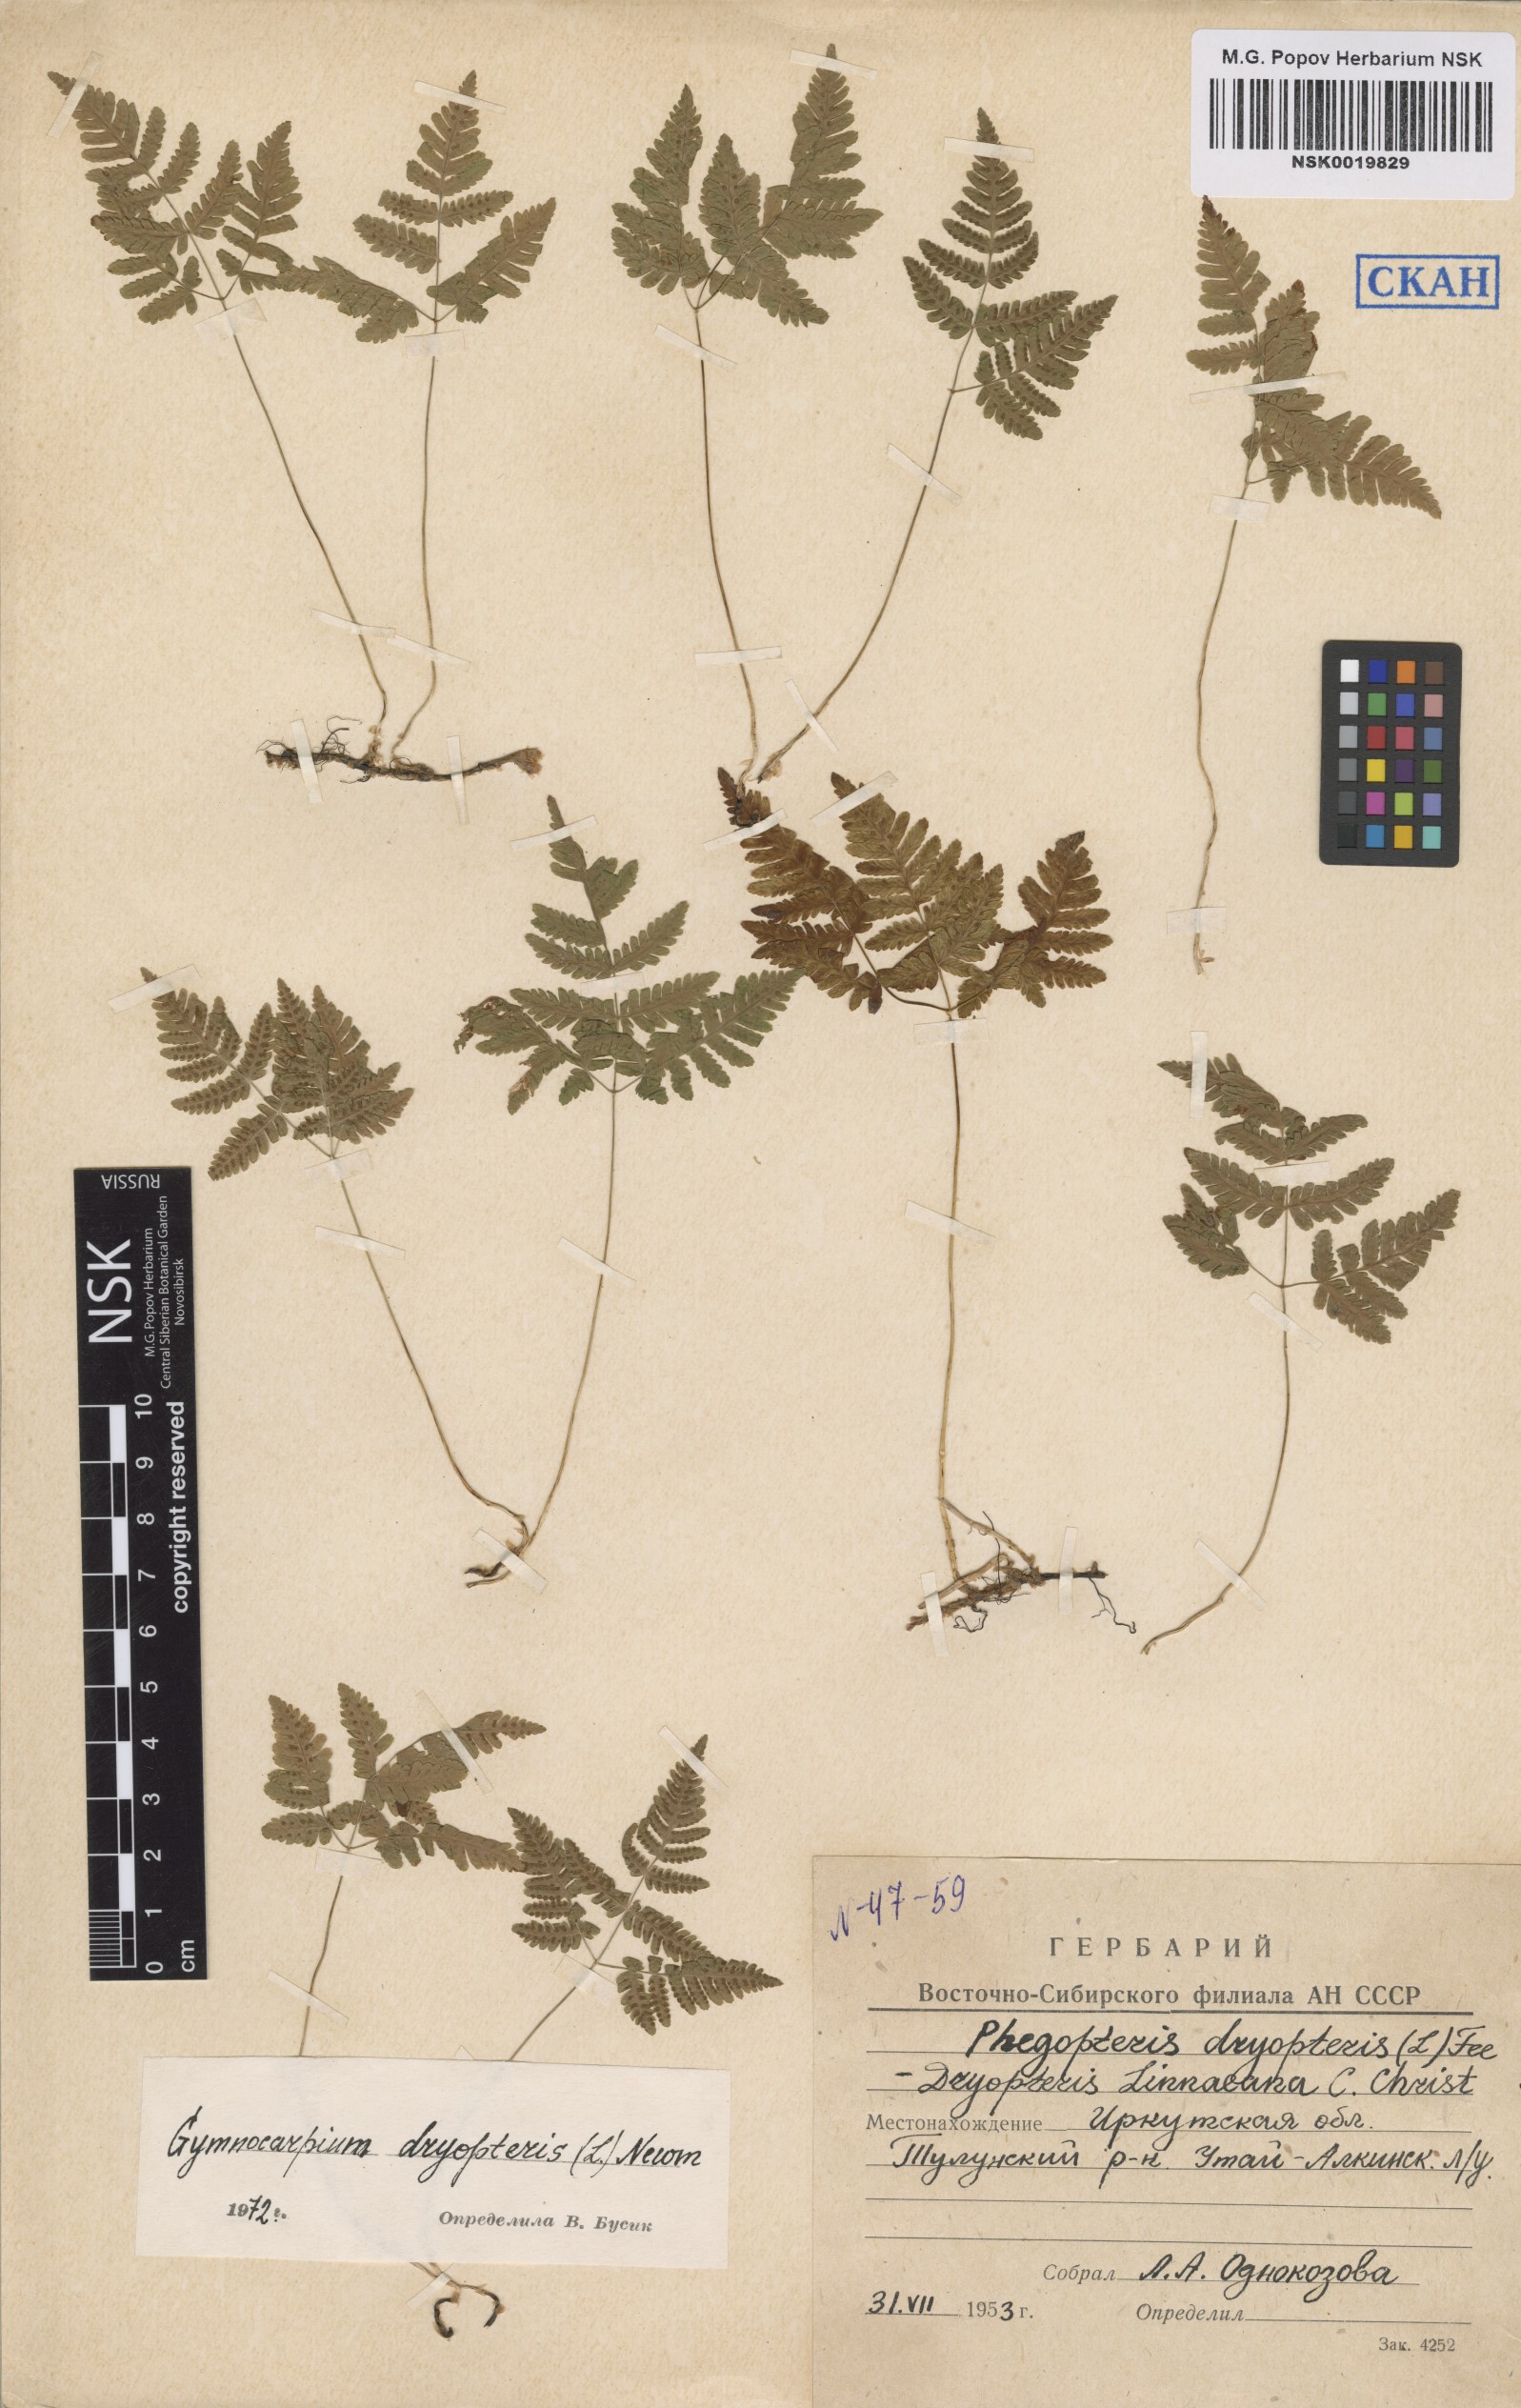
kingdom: Plantae
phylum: Tracheophyta
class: Polypodiopsida
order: Polypodiales
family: Cystopteridaceae
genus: Gymnocarpium
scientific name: Gymnocarpium dryopteris
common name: Oak fern
